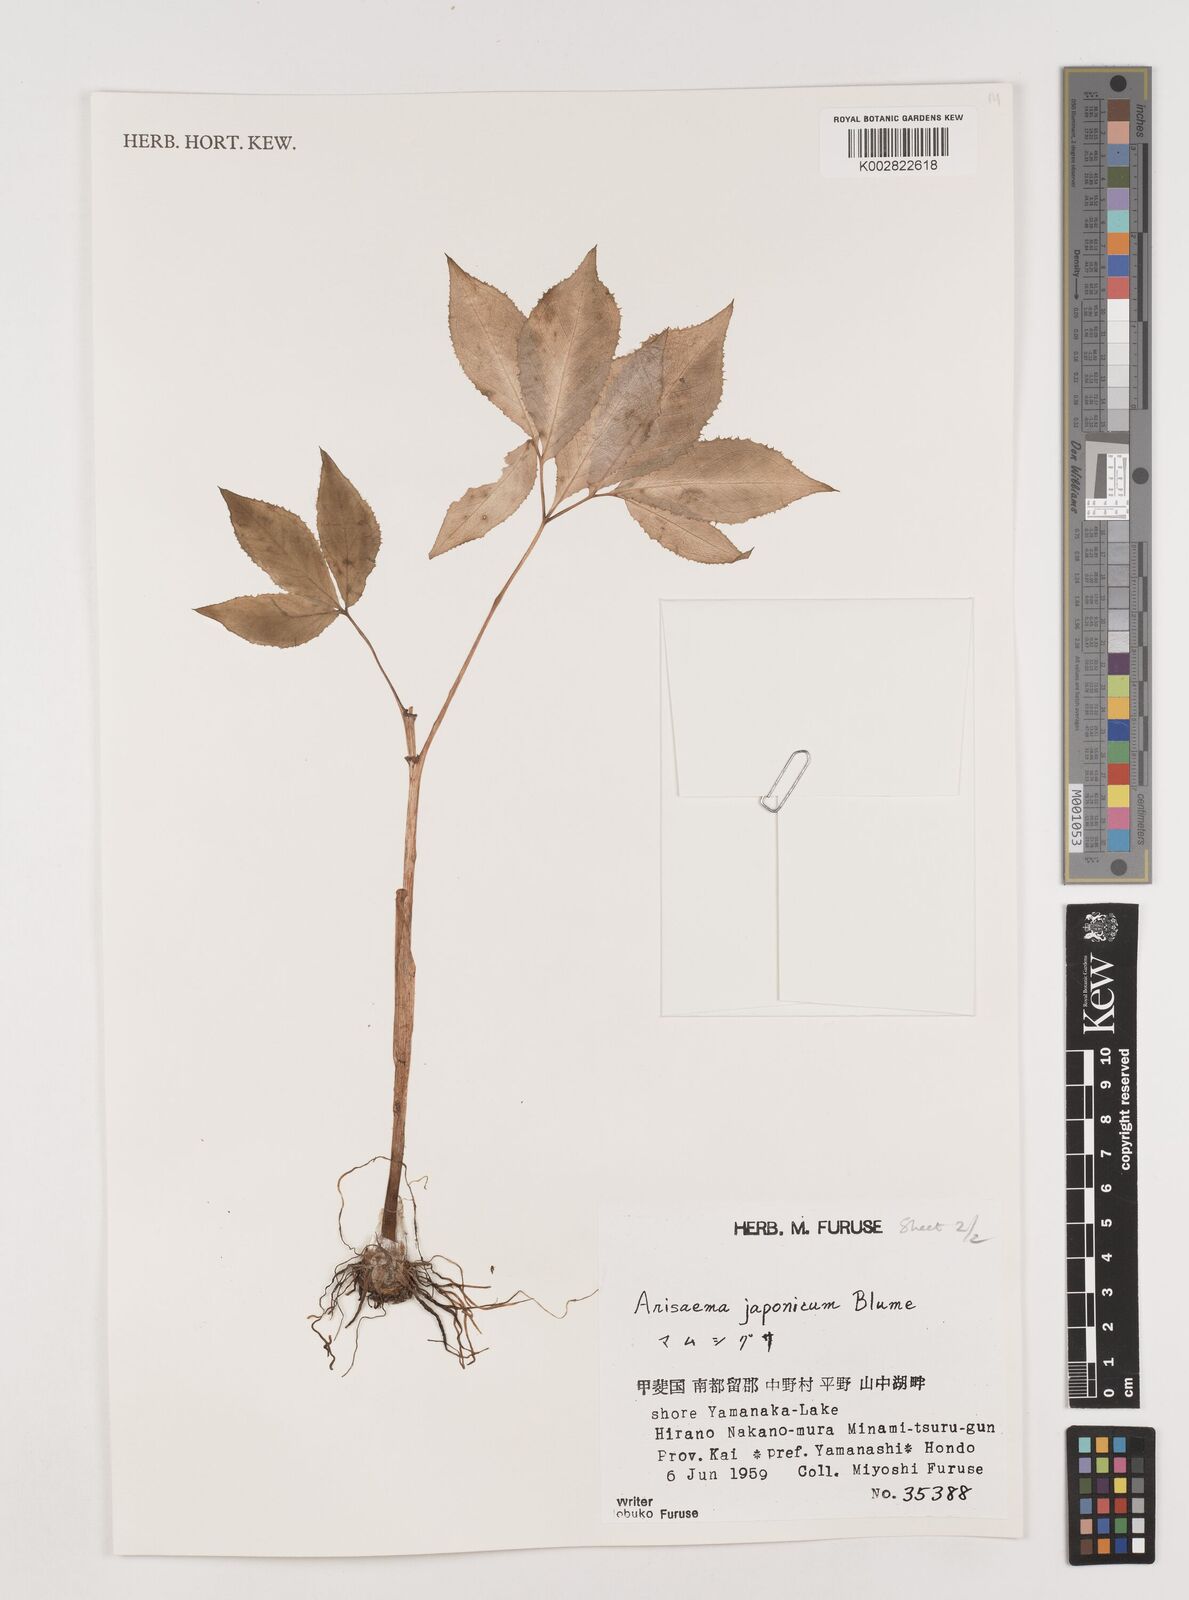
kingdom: Plantae
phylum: Tracheophyta
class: Liliopsida
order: Alismatales
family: Araceae
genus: Arisaema
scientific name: Arisaema serratum
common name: Japanese arisaema
